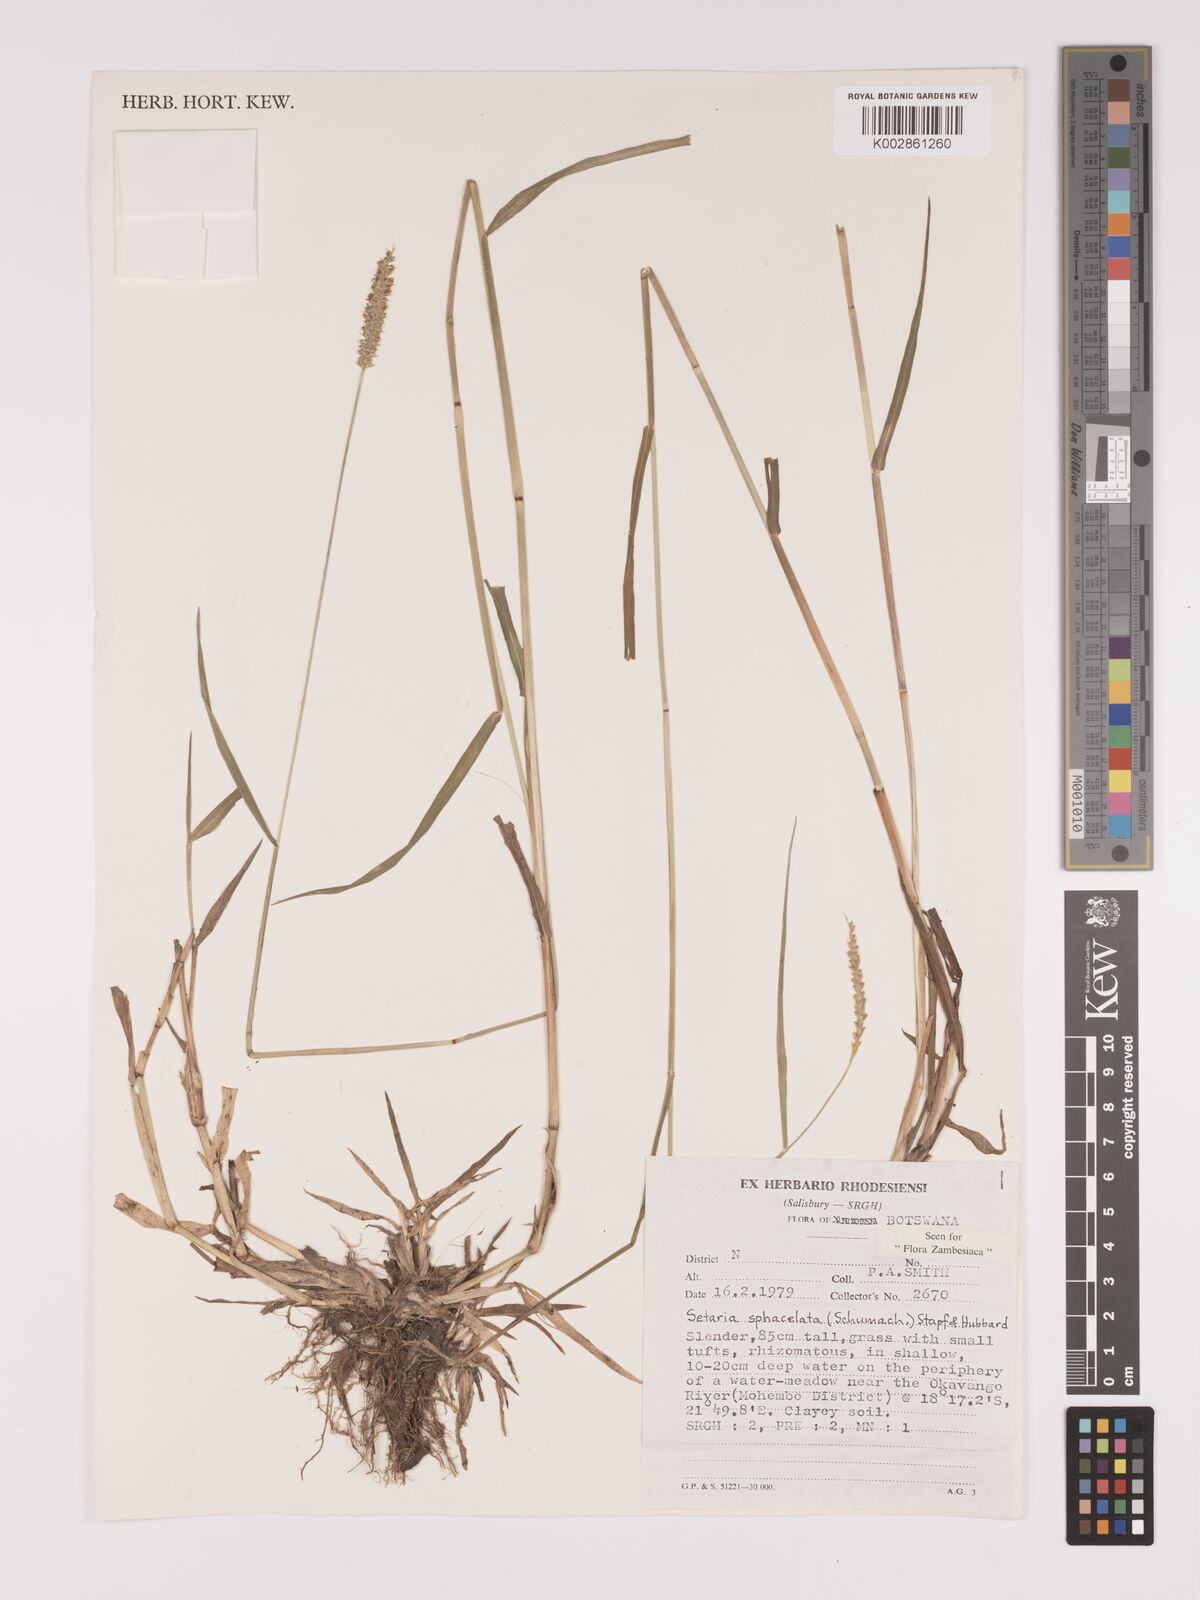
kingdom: Plantae
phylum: Tracheophyta
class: Liliopsida
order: Poales
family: Poaceae
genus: Setaria
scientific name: Setaria sphacelata
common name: African bristlegrass
